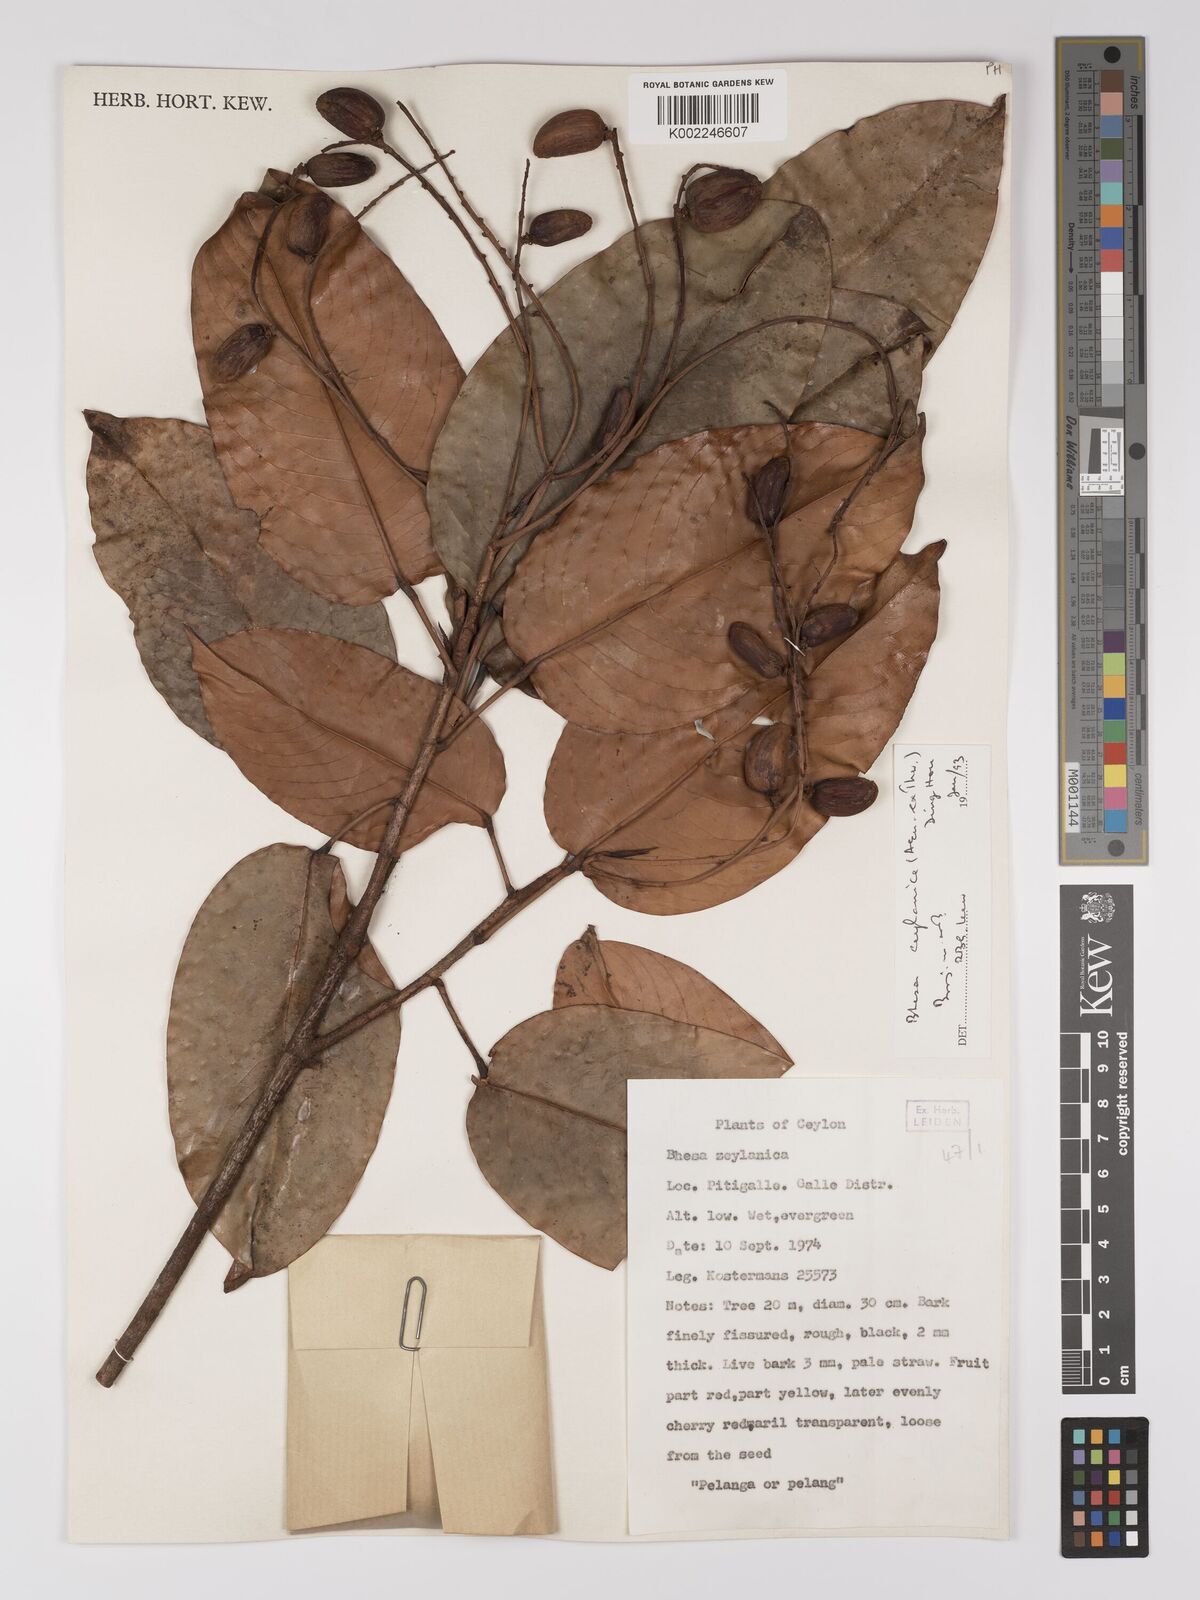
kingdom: Plantae
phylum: Tracheophyta
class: Magnoliopsida
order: Malpighiales
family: Centroplacaceae
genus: Bhesa
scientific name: Bhesa ceylanica
